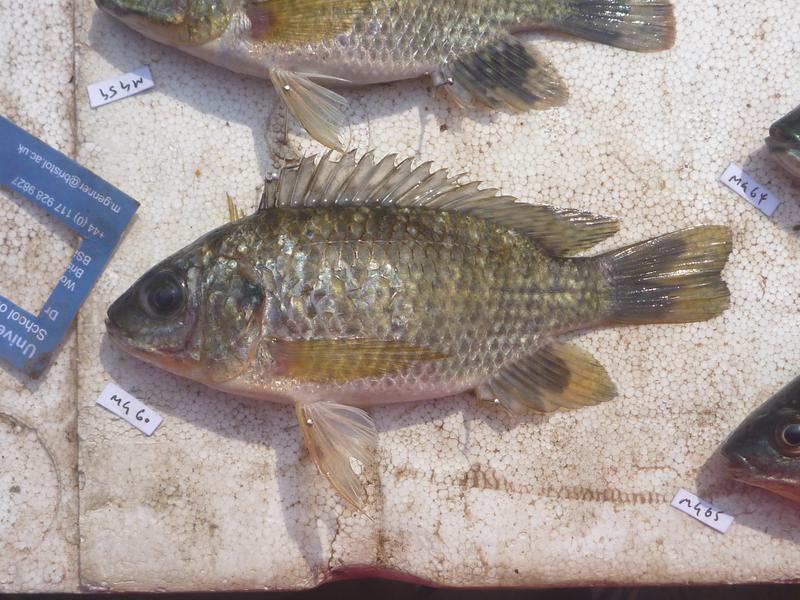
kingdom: Animalia
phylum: Chordata
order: Perciformes
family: Cichlidae
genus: Oreochromis
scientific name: Oreochromis leucostictus
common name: Blue spotted tilapia
